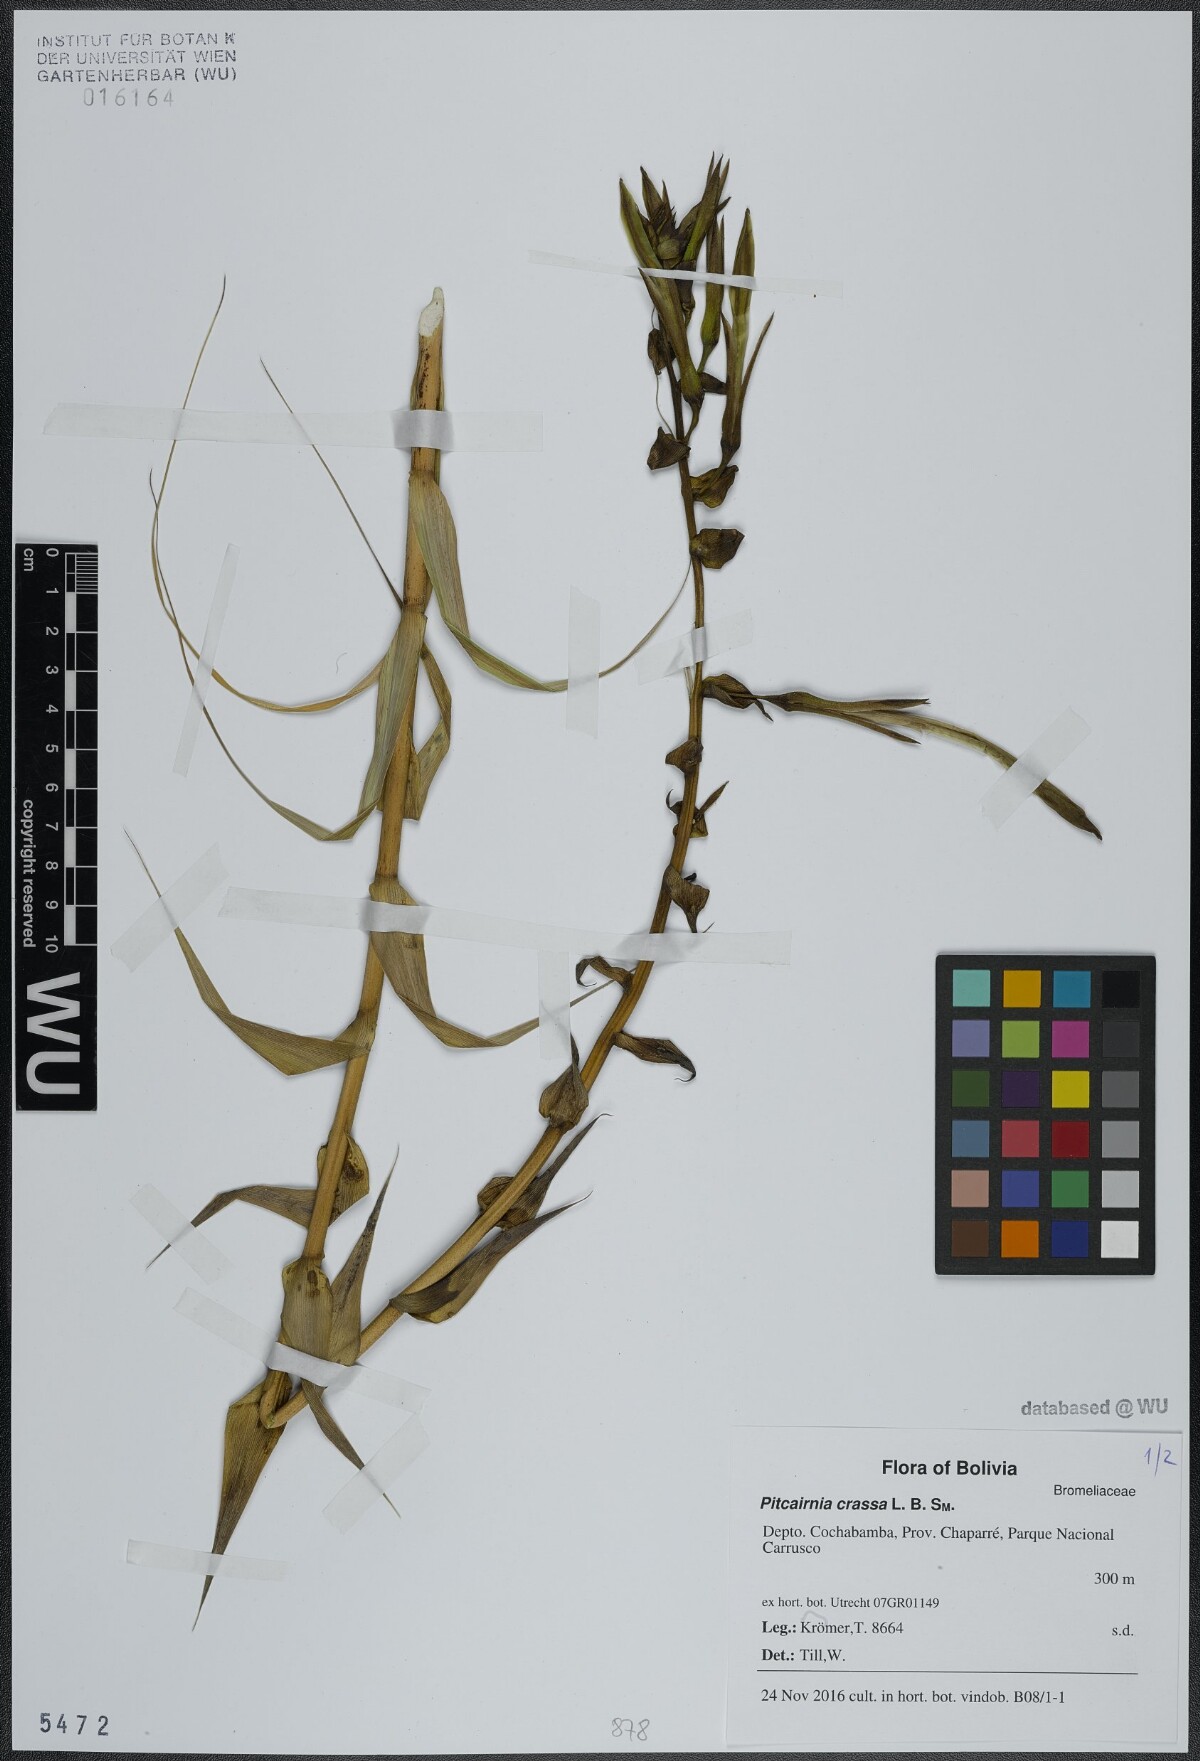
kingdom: Plantae
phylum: Tracheophyta
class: Liliopsida
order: Poales
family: Bromeliaceae
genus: Pitcairnia
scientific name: Pitcairnia crassa
